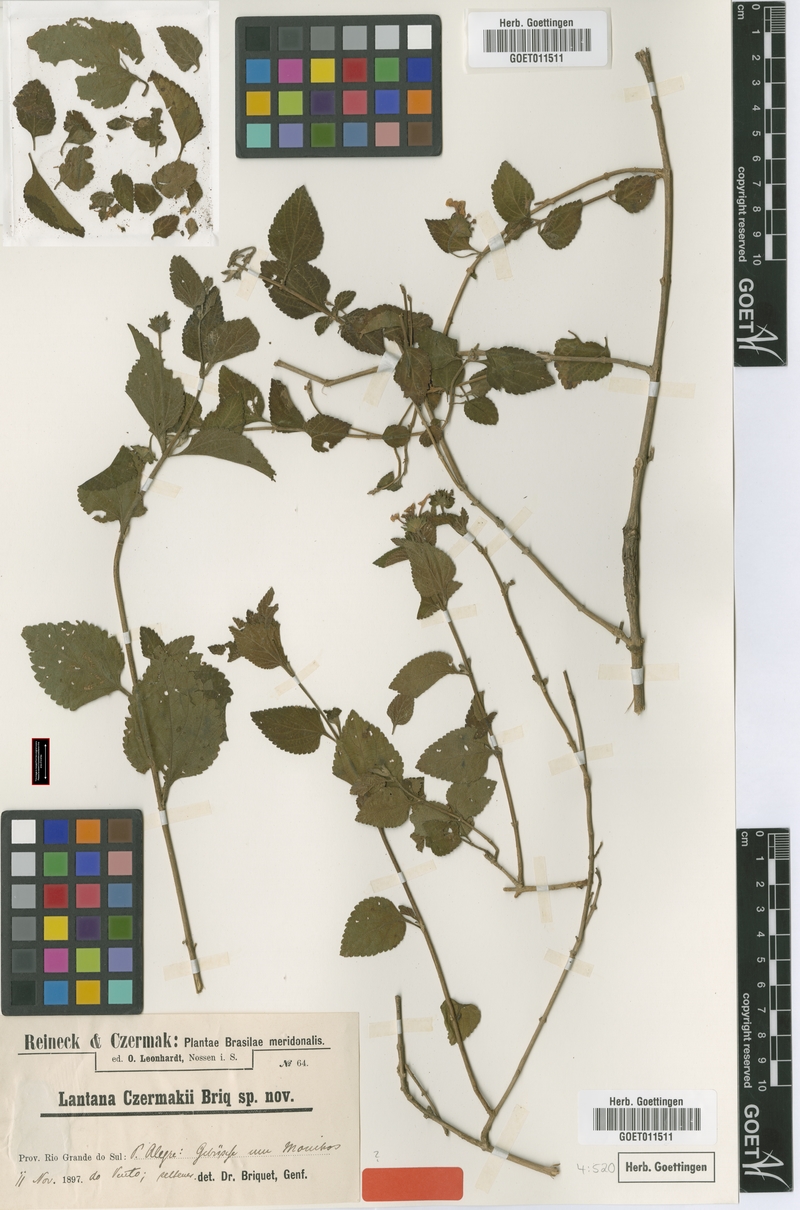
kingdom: Plantae
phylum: Tracheophyta
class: Magnoliopsida
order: Lamiales
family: Verbenaceae
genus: Lantana
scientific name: Lantana fucata
